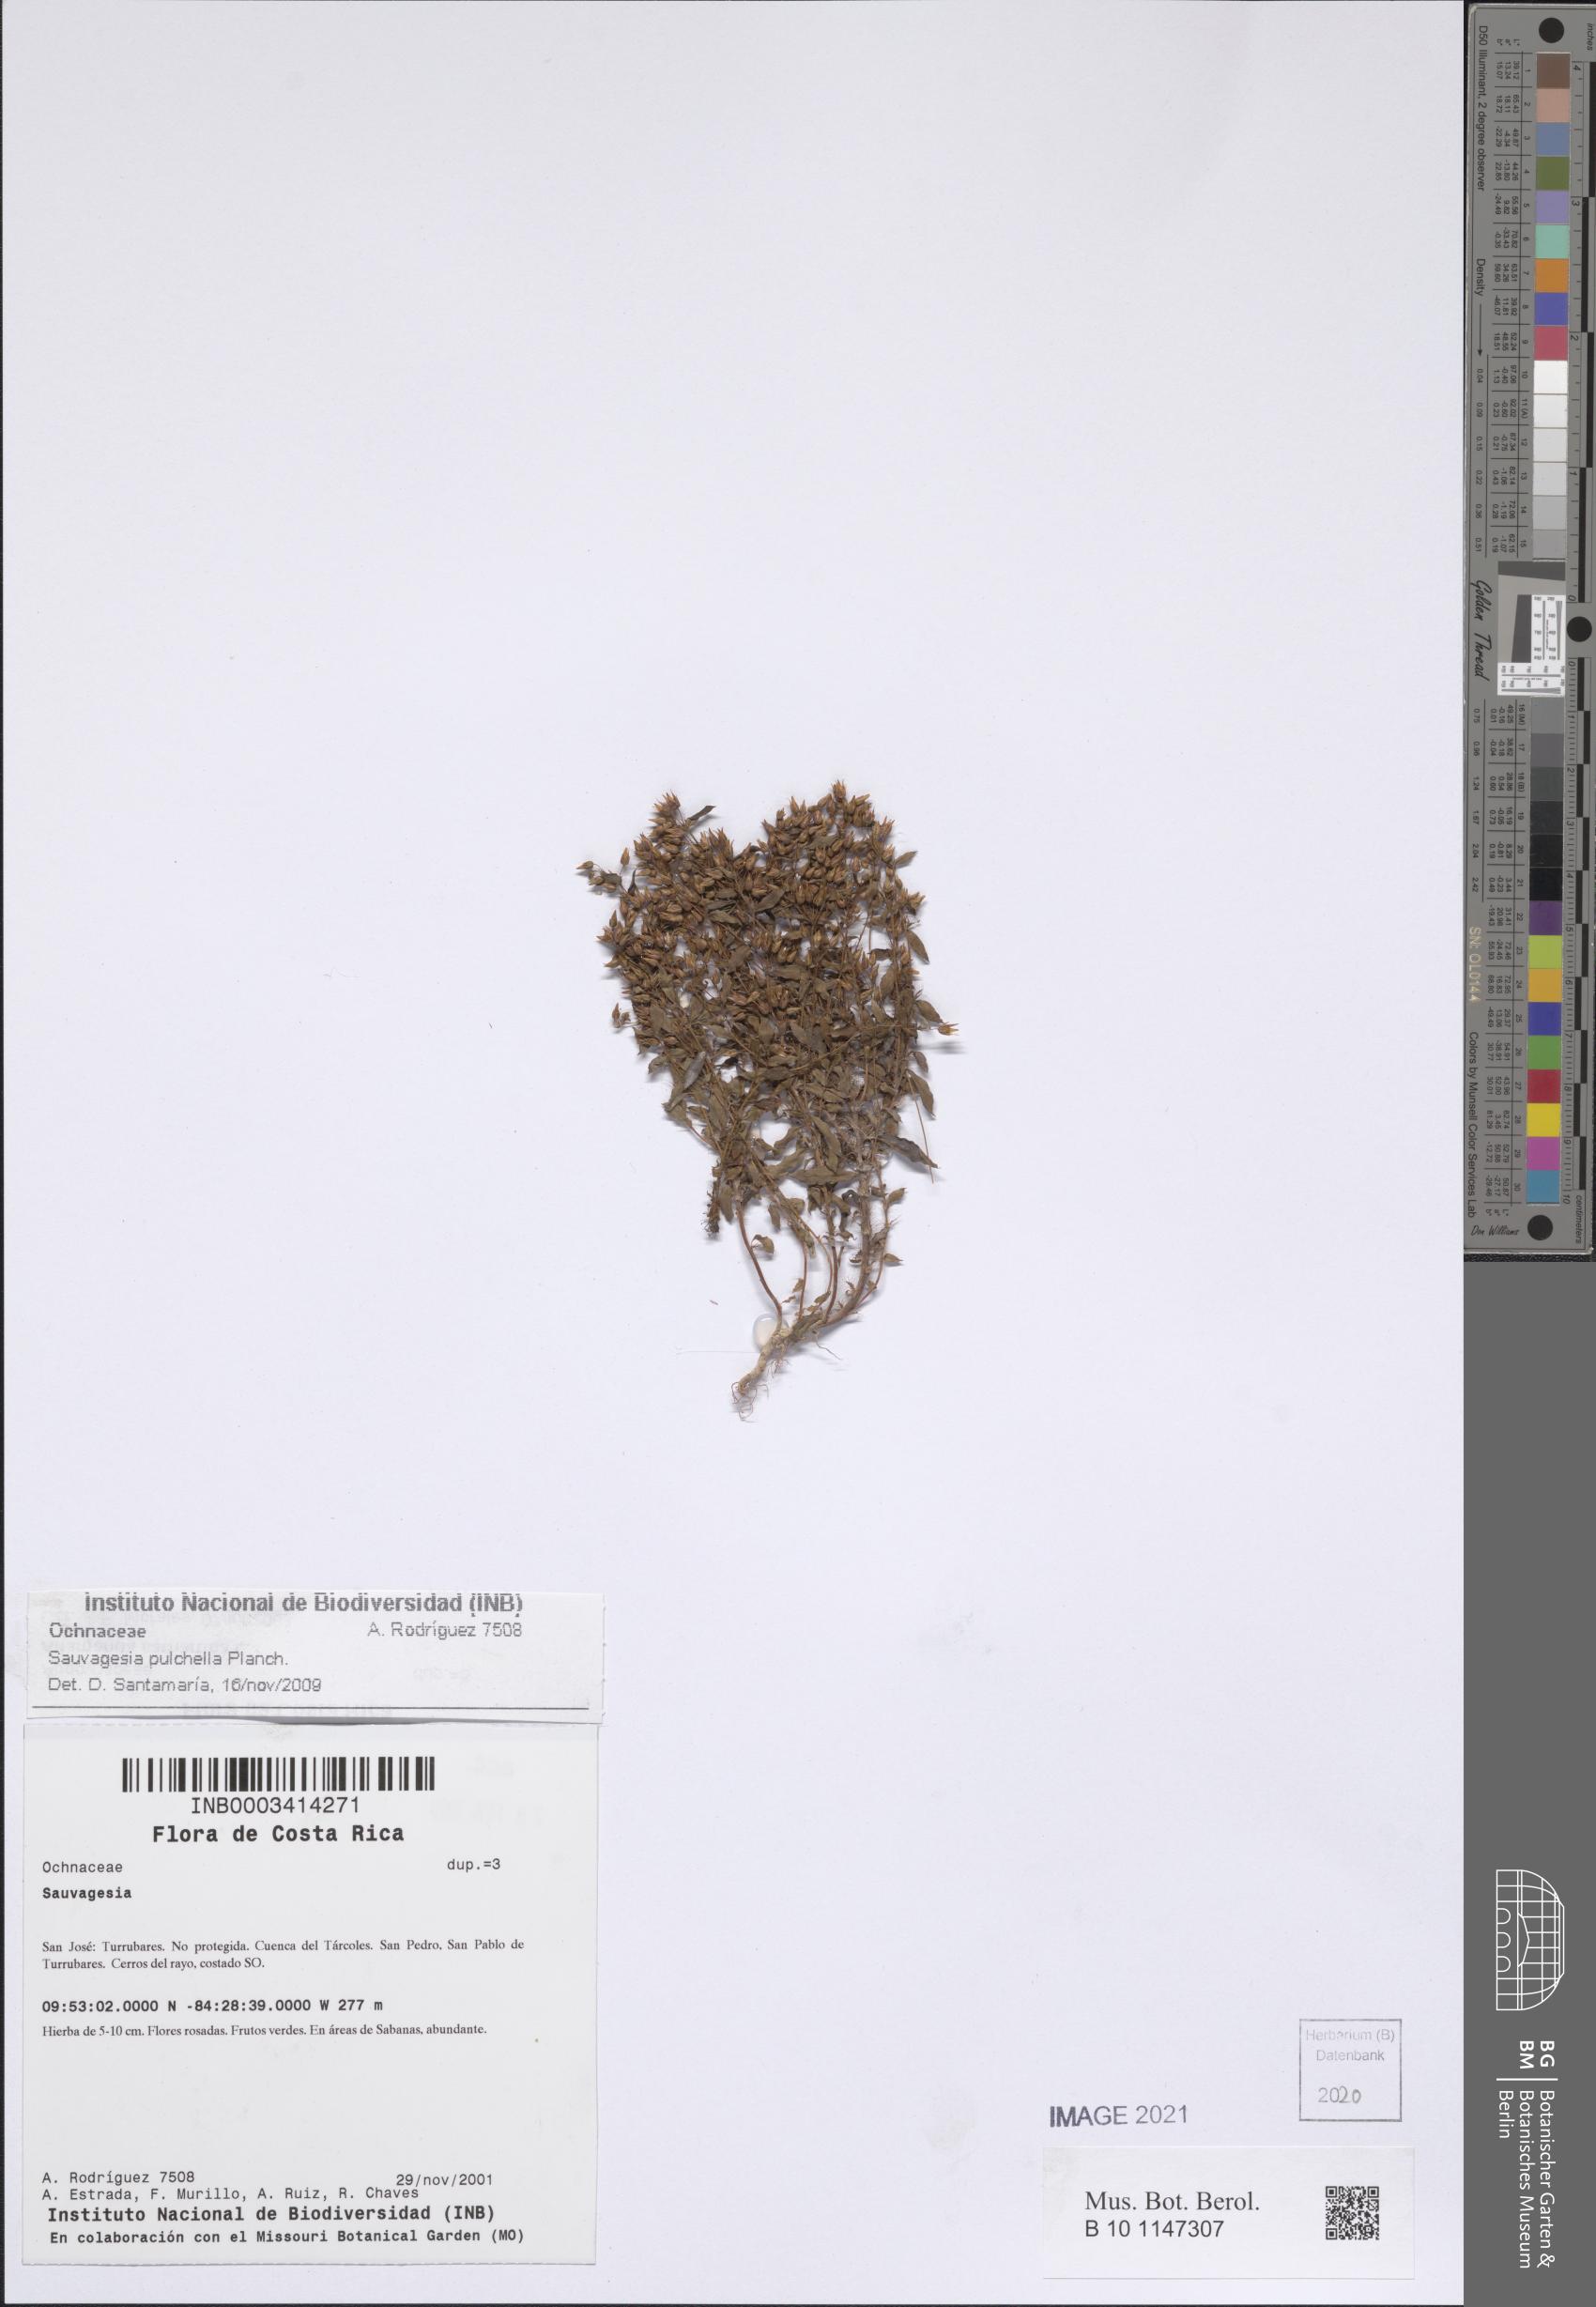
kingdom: Plantae
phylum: Tracheophyta
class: Magnoliopsida
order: Malpighiales
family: Ochnaceae
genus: Sauvagesia
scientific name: Sauvagesia pulchella
